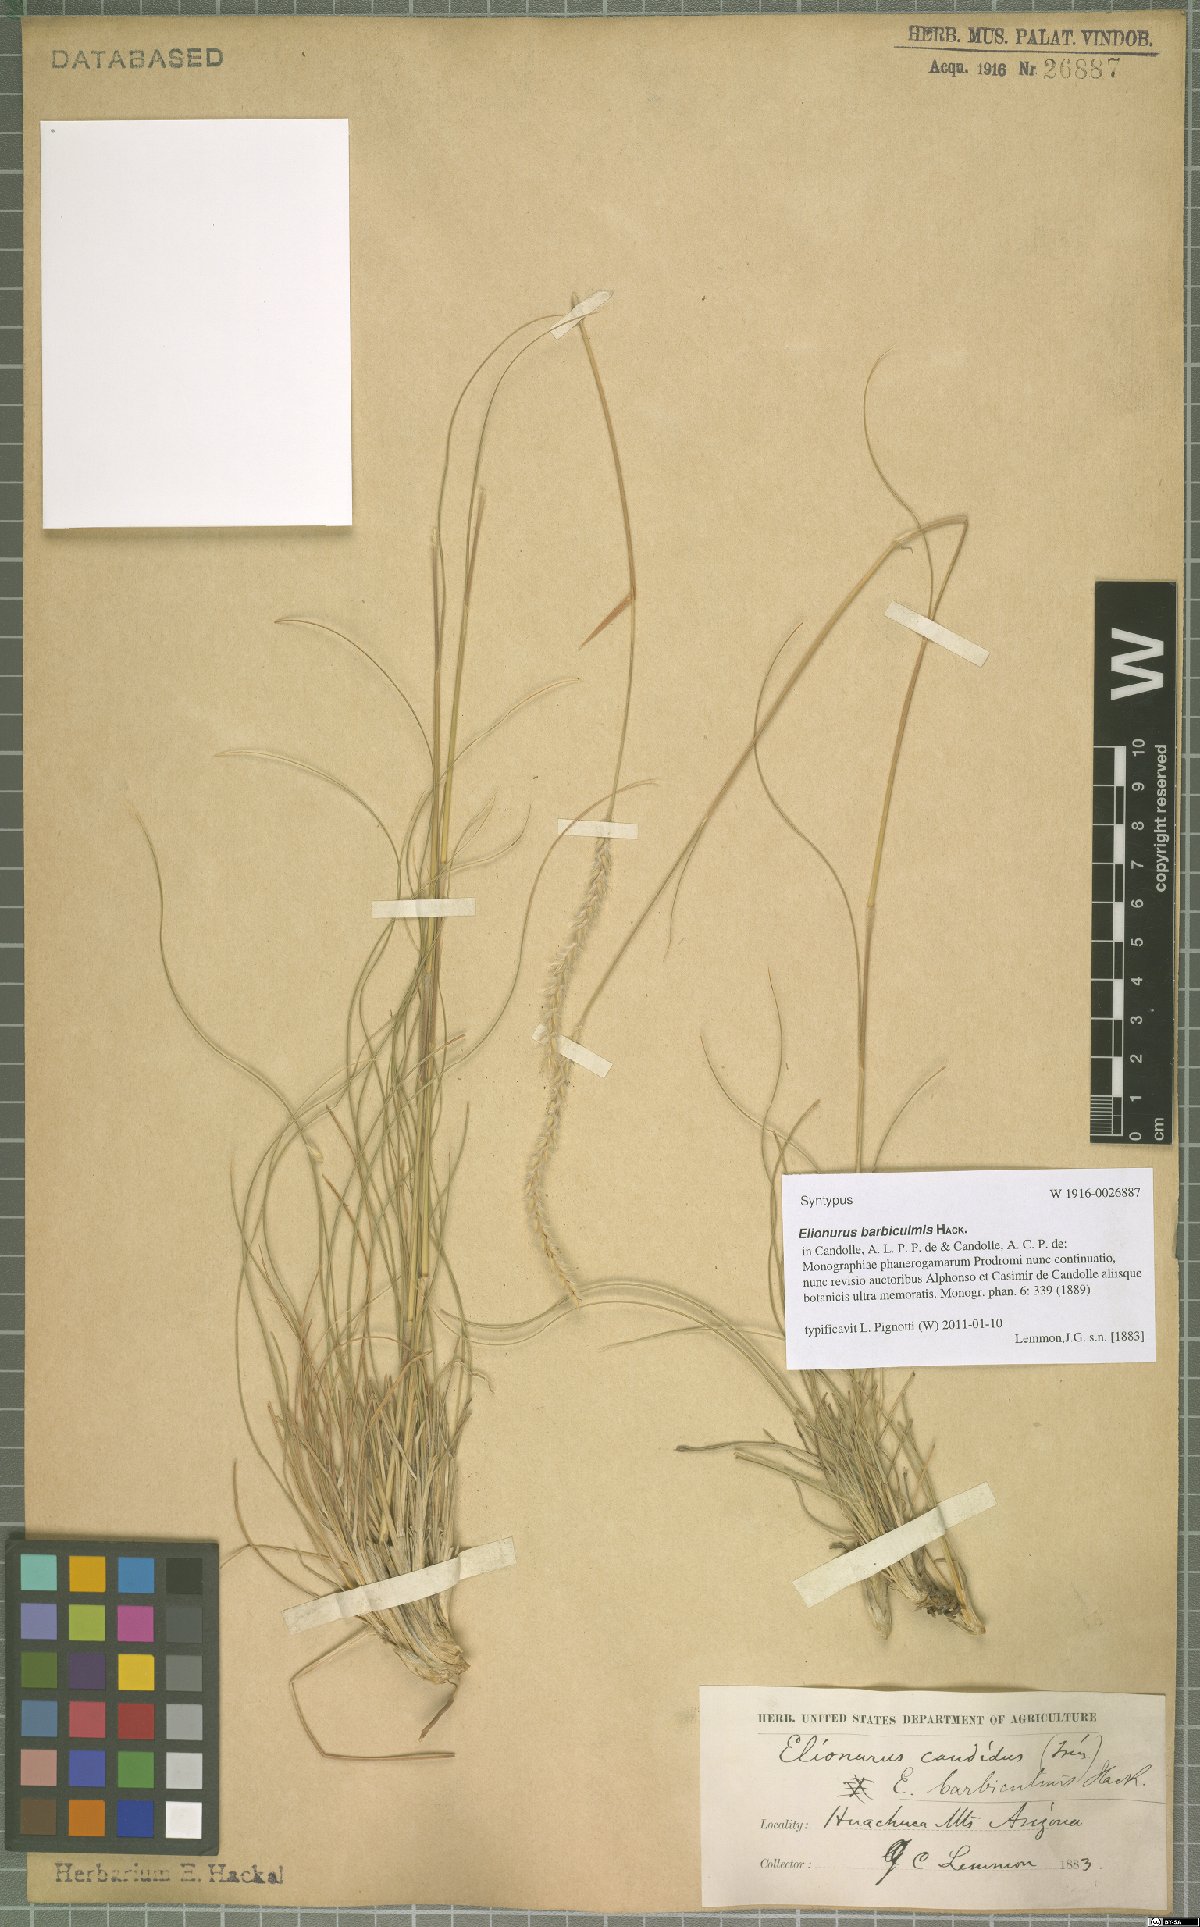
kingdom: Plantae
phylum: Tracheophyta
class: Liliopsida
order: Poales
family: Poaceae
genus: Elionurus
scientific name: Elionurus barbiculmis
